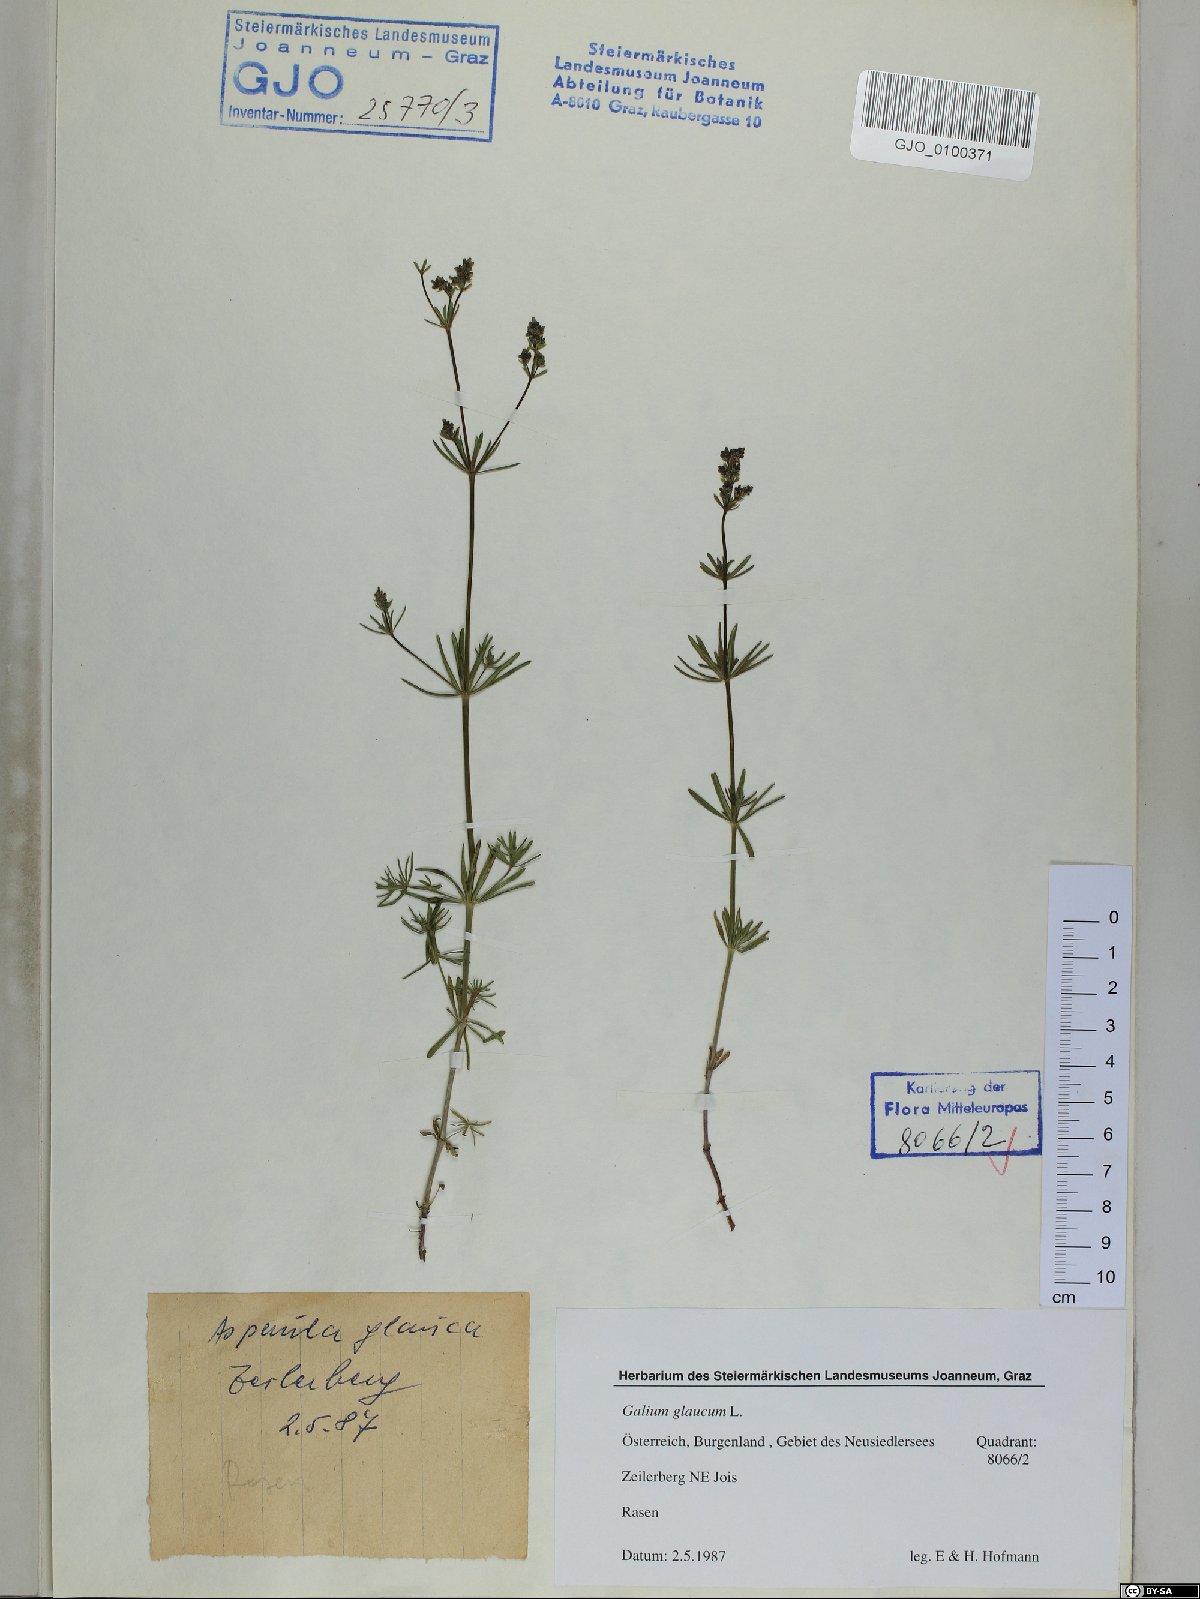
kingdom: Plantae
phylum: Tracheophyta
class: Magnoliopsida
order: Gentianales
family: Rubiaceae
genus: Galium
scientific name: Galium glaucum
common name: Waxy bedstraw
